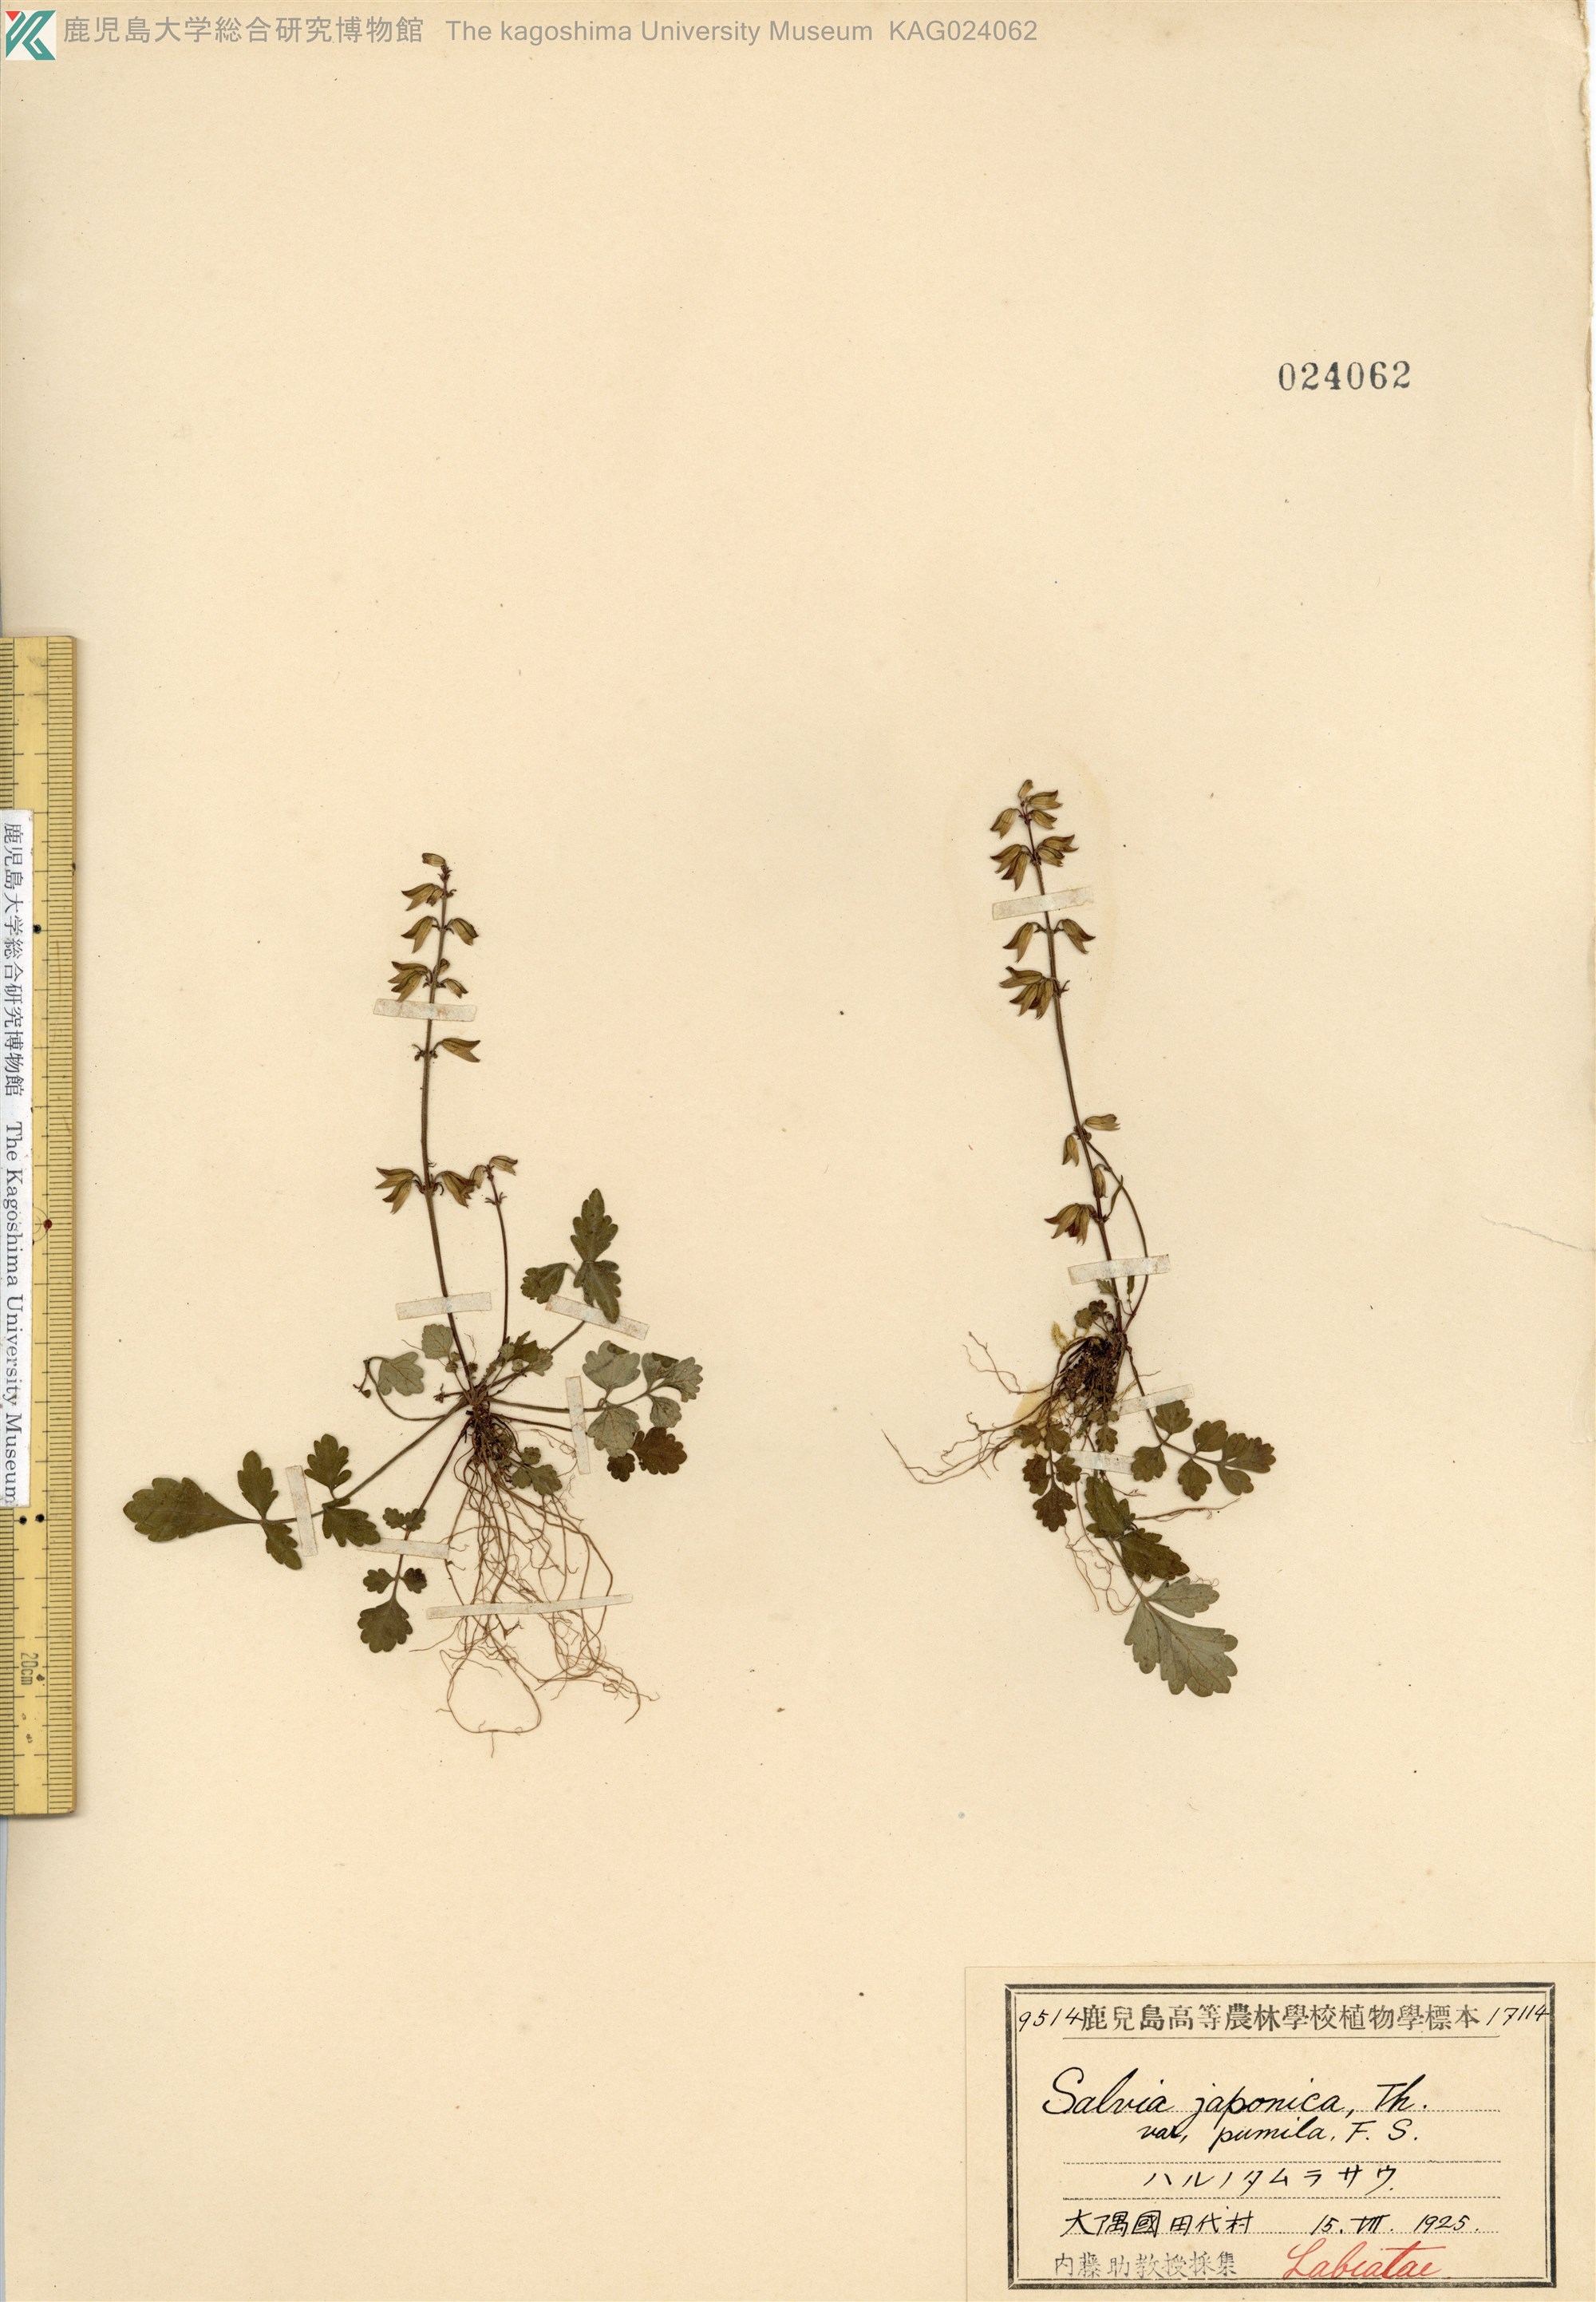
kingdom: Plantae
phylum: Tracheophyta
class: Magnoliopsida
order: Lamiales
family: Lamiaceae
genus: Salvia
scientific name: Salvia ranzaniana
